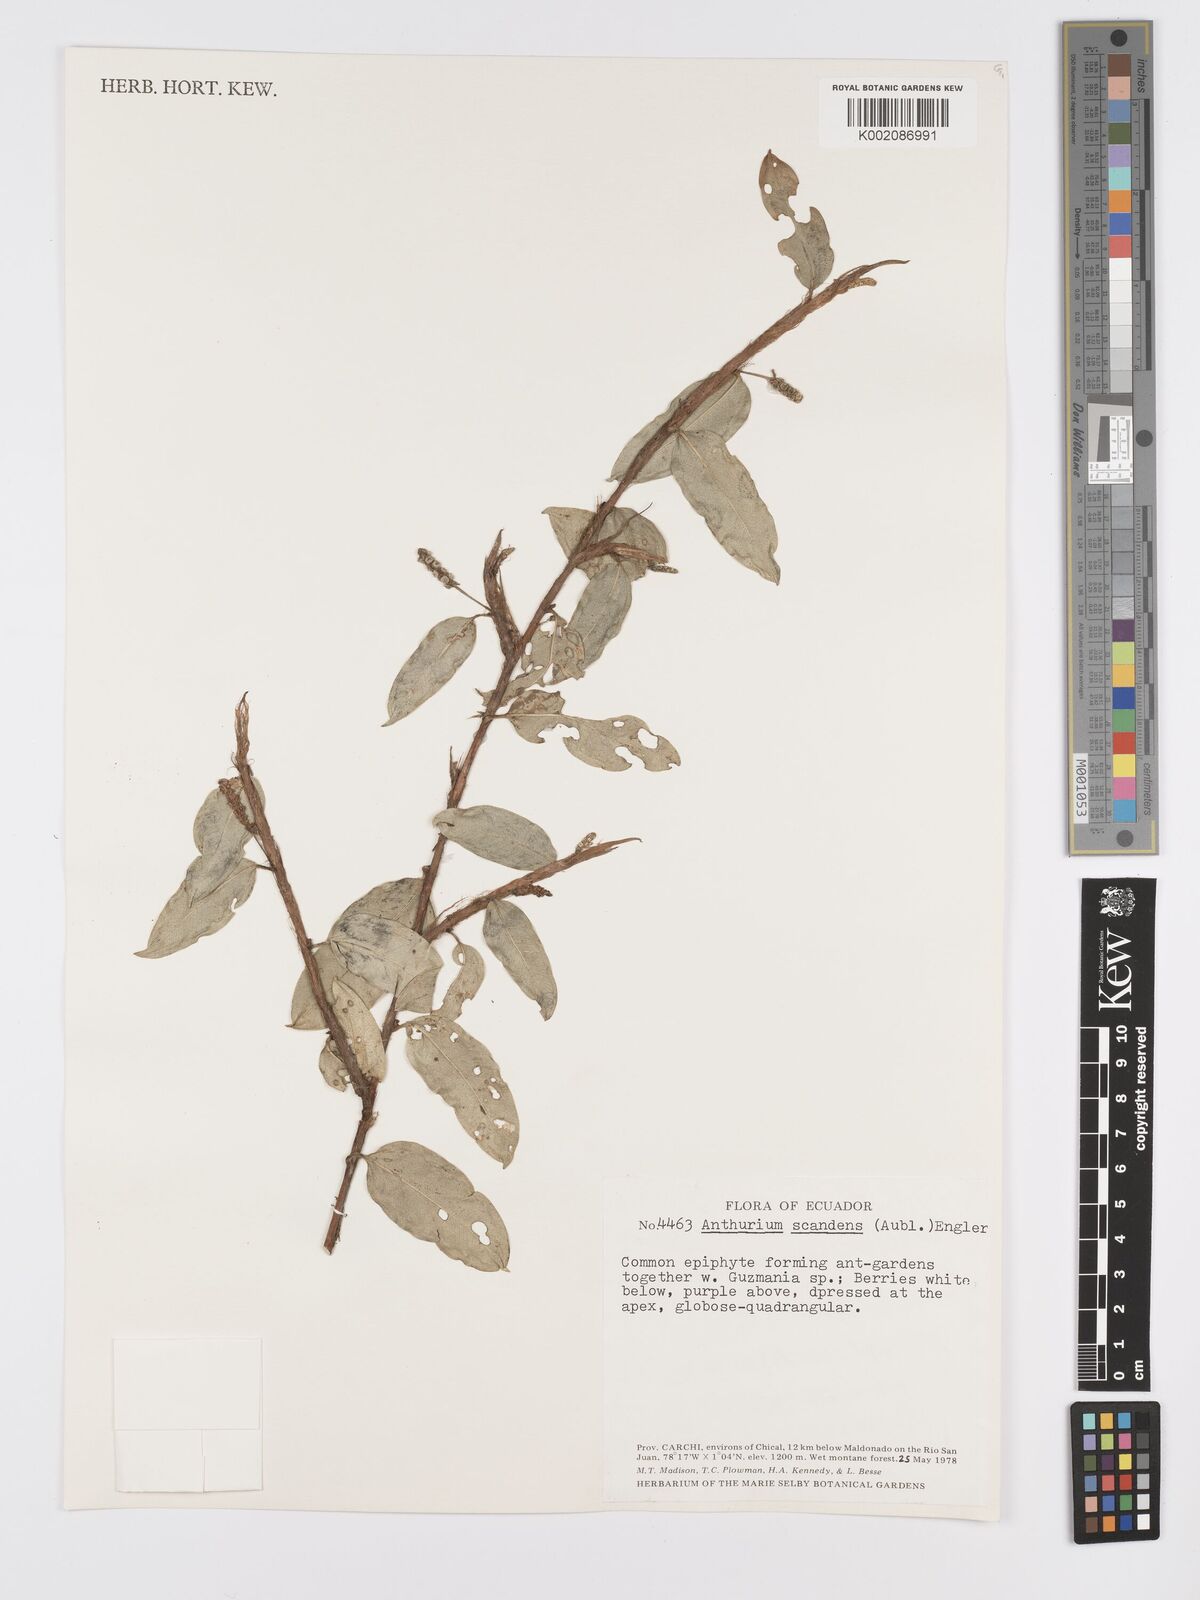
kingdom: Plantae
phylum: Tracheophyta
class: Liliopsida
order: Alismatales
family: Araceae
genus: Anthurium
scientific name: Anthurium scandens
